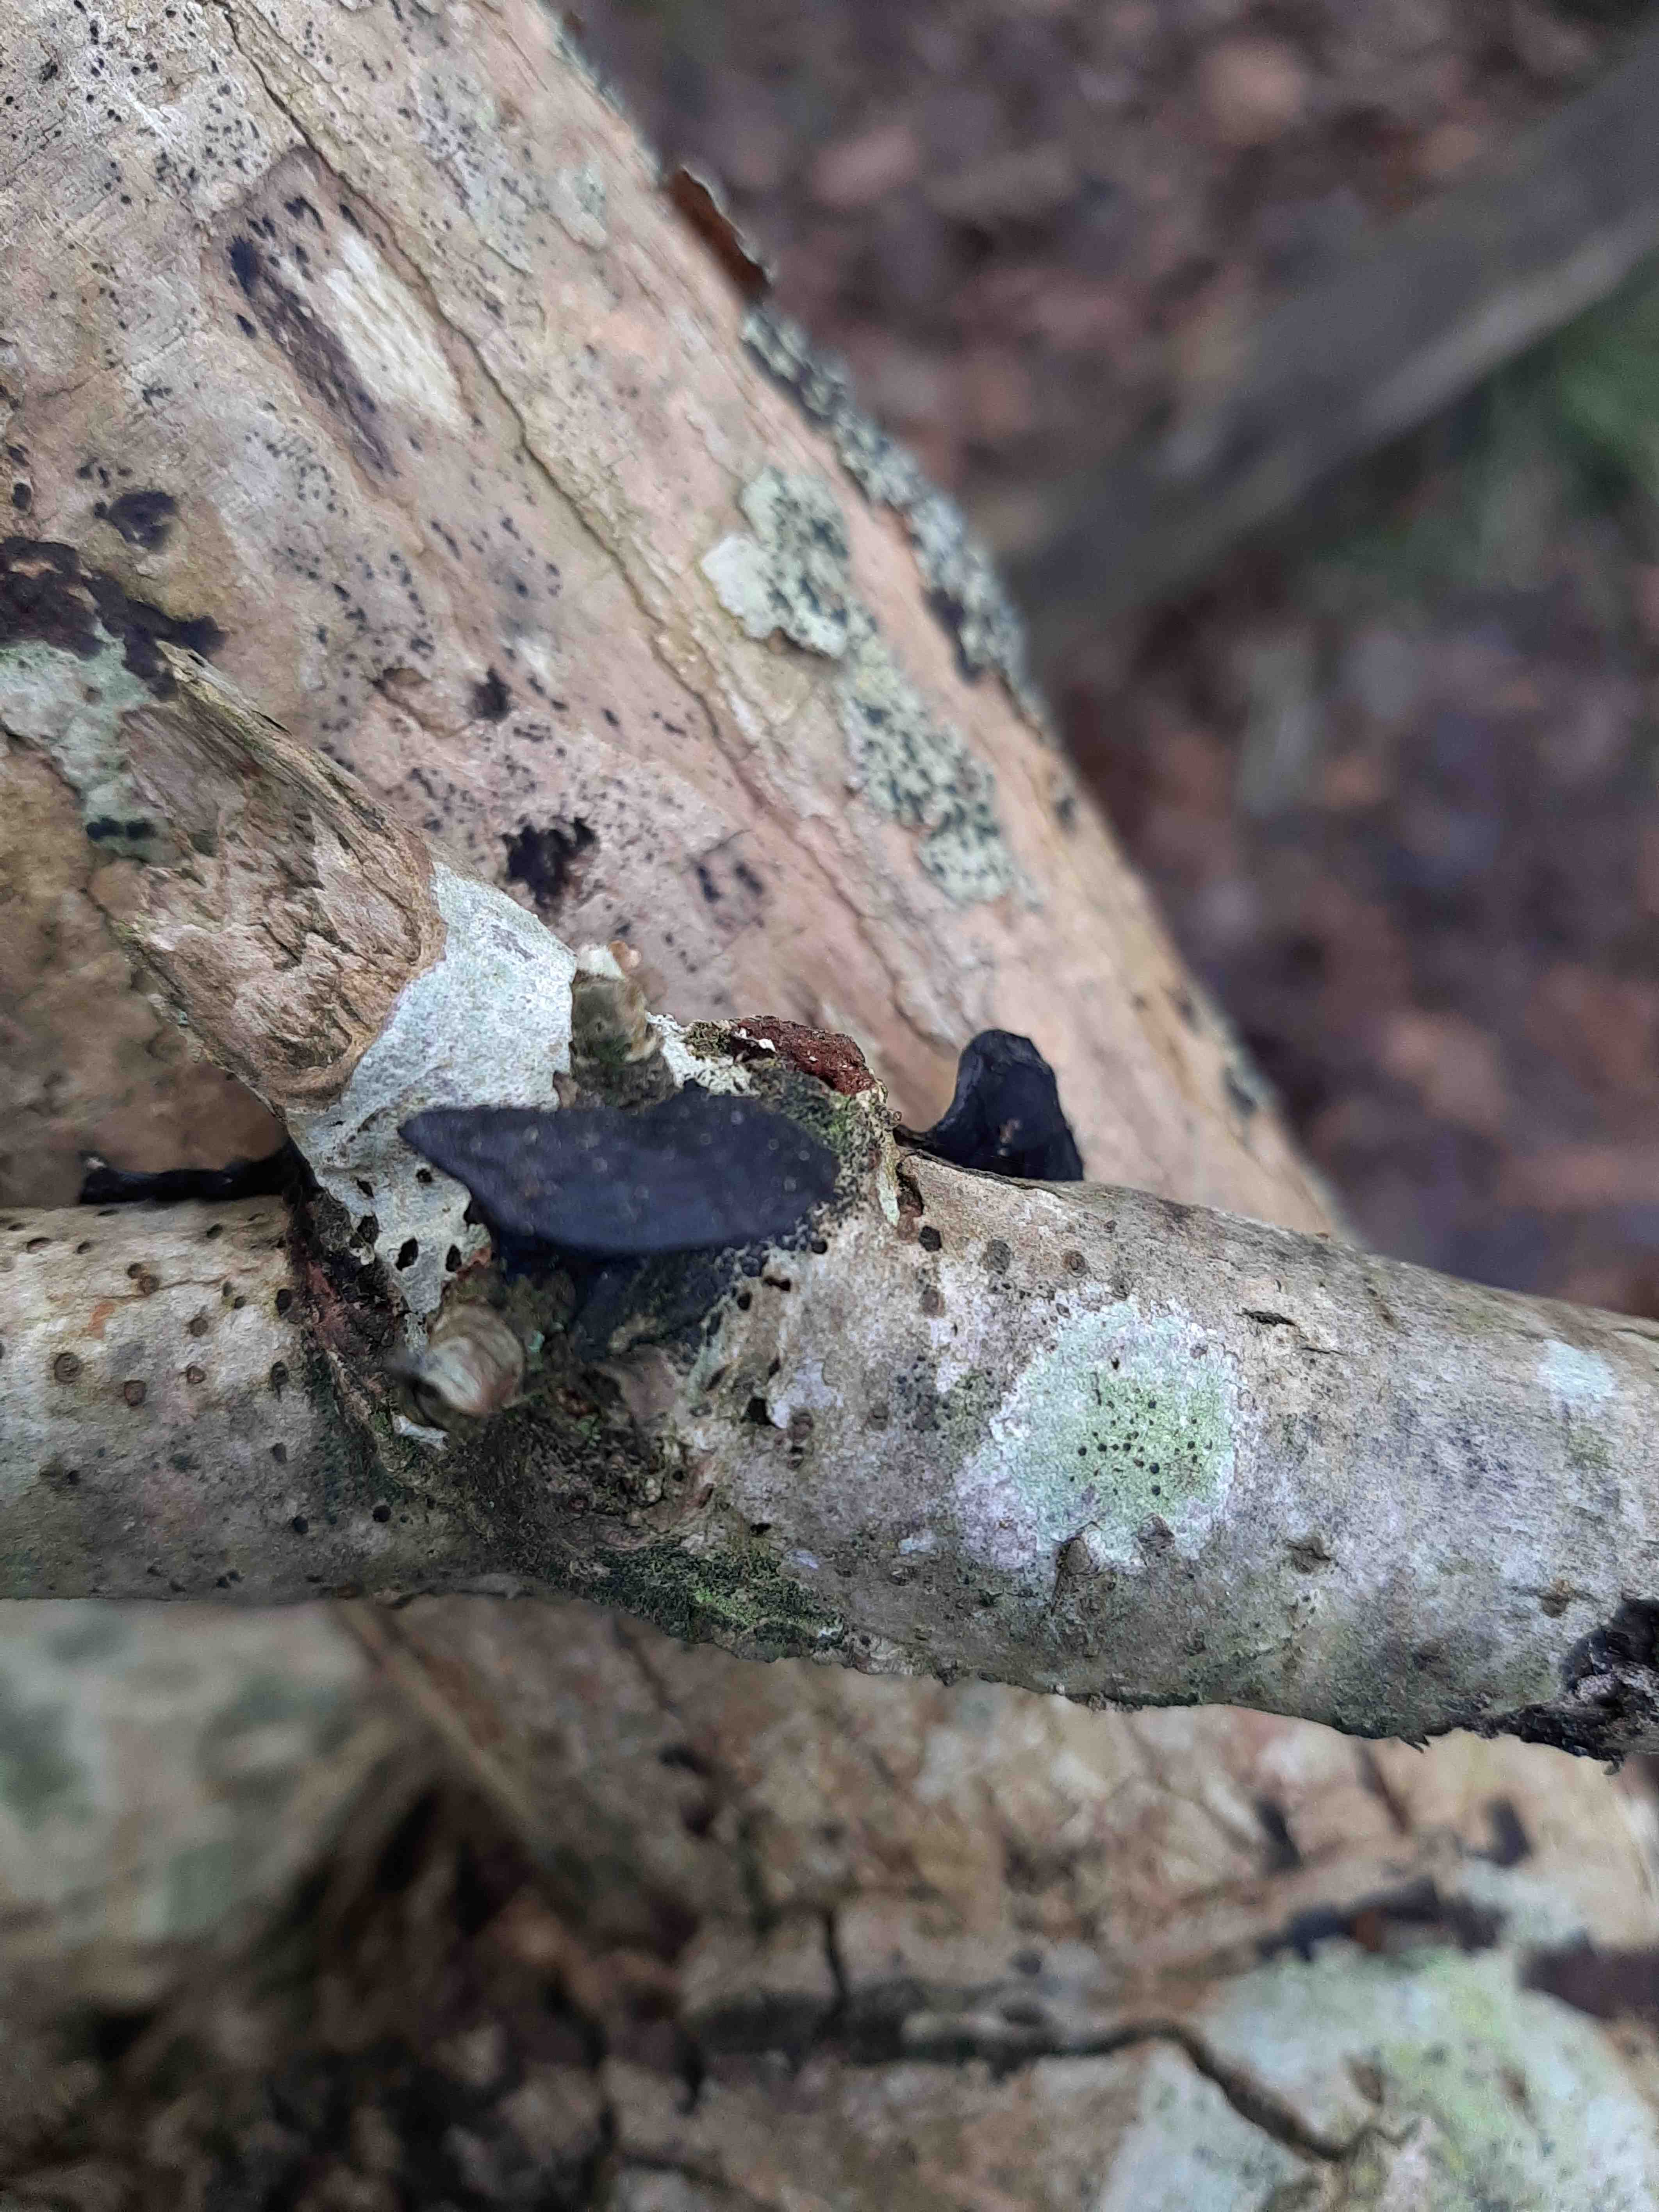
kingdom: Fungi
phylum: Basidiomycota
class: Agaricomycetes
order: Auriculariales
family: Auriculariaceae
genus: Exidia
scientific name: Exidia glandulosa
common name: ege-bævretop
